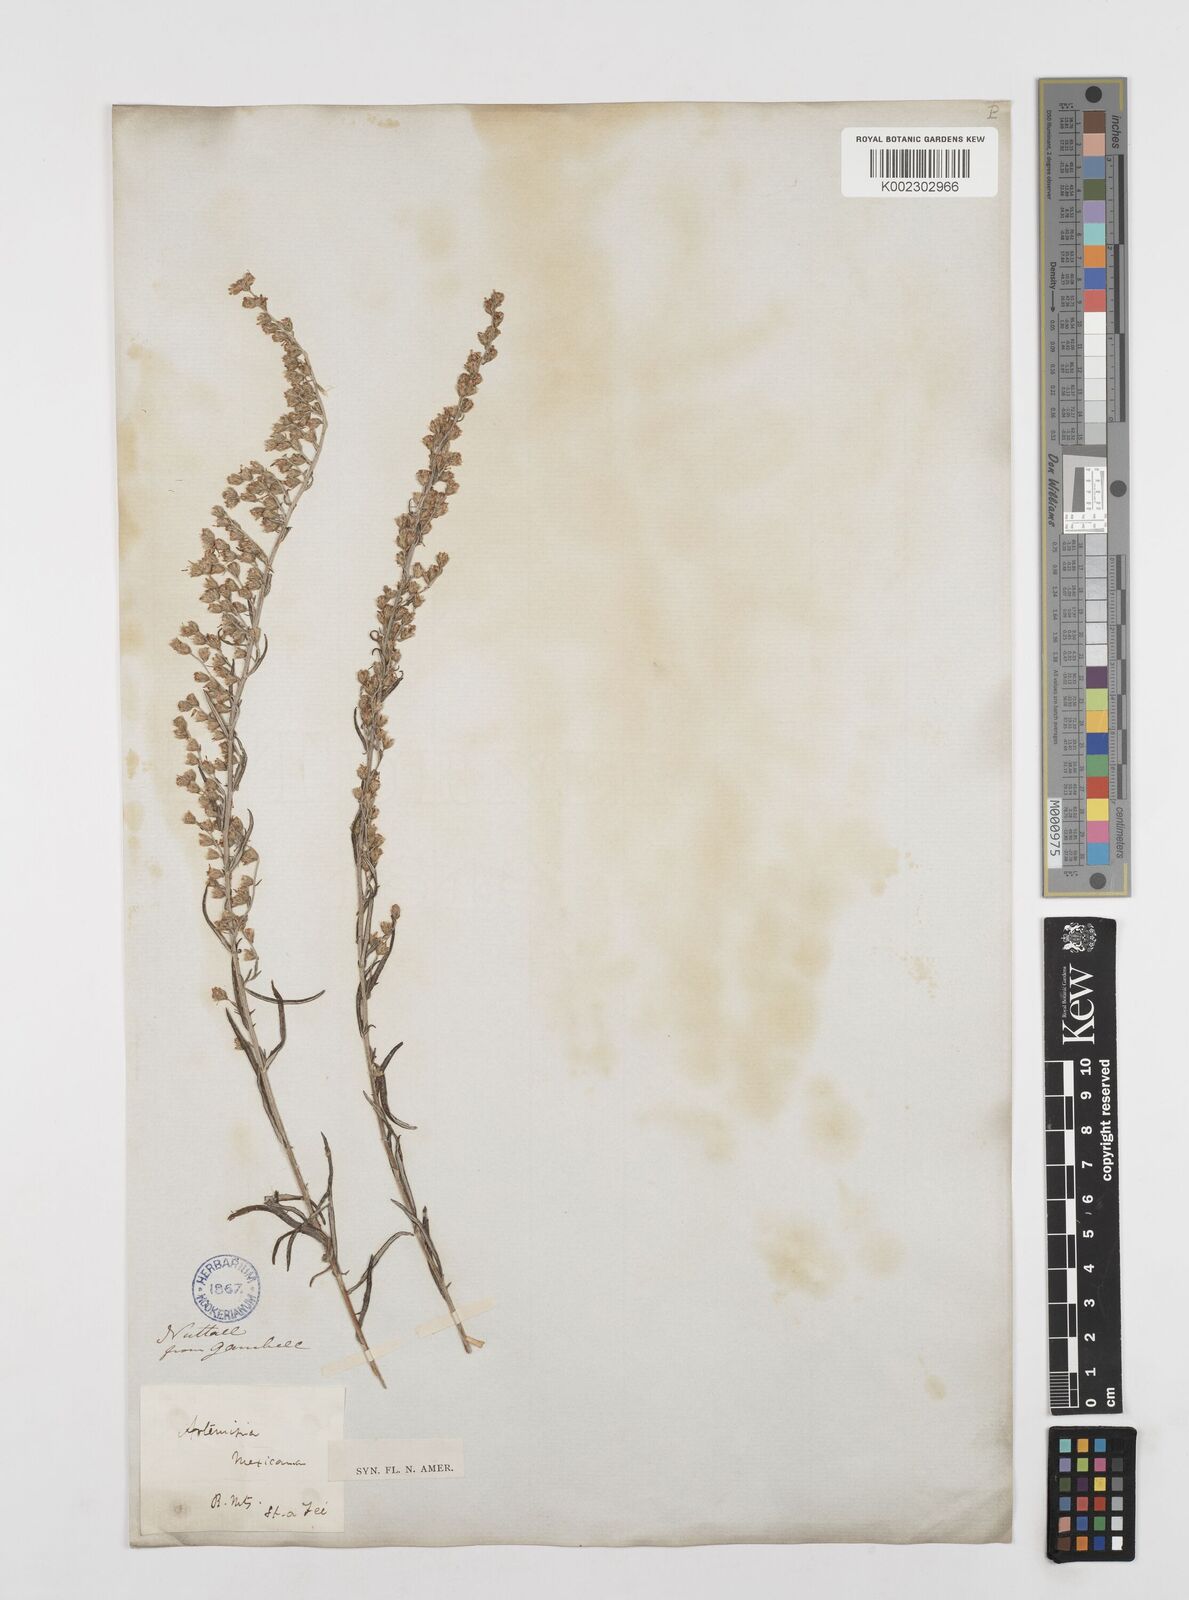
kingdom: Plantae
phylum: Tracheophyta
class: Magnoliopsida
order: Asterales
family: Asteraceae
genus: Artemisia
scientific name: Artemisia ludoviciana
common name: Western mugwort
